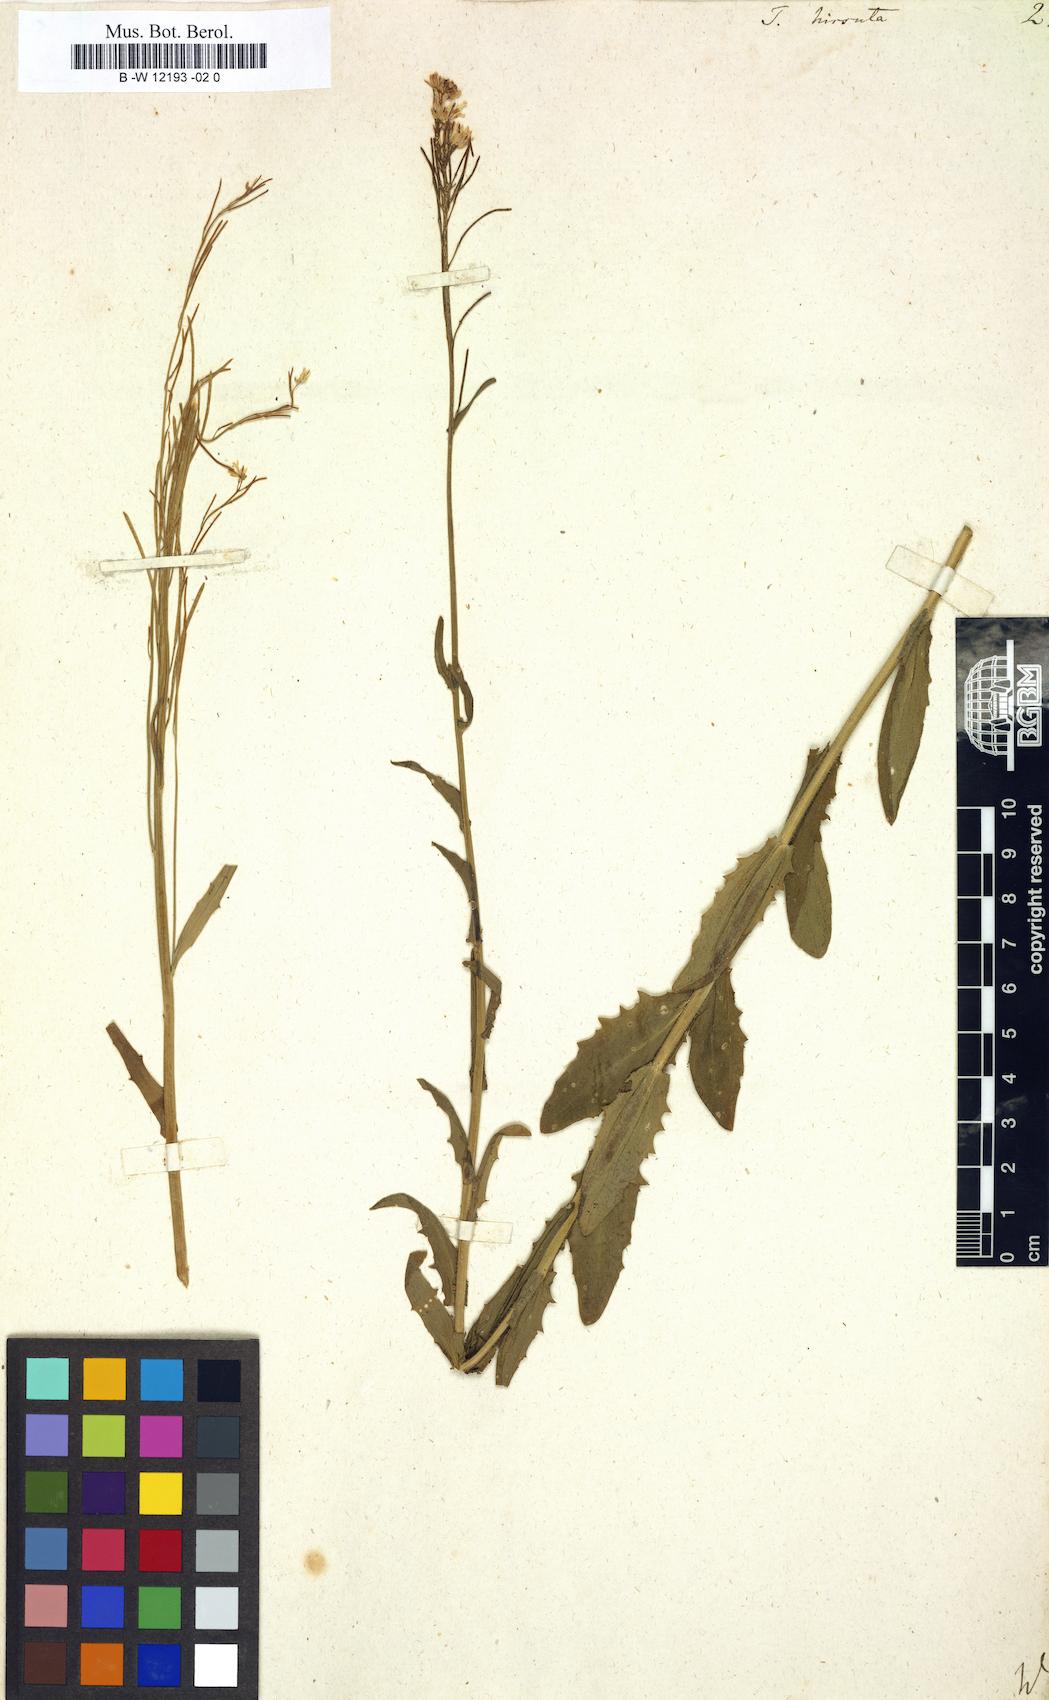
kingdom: Plantae
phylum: Tracheophyta
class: Magnoliopsida
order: Brassicales
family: Brassicaceae
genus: Turritis
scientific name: Turritis hirsuta
